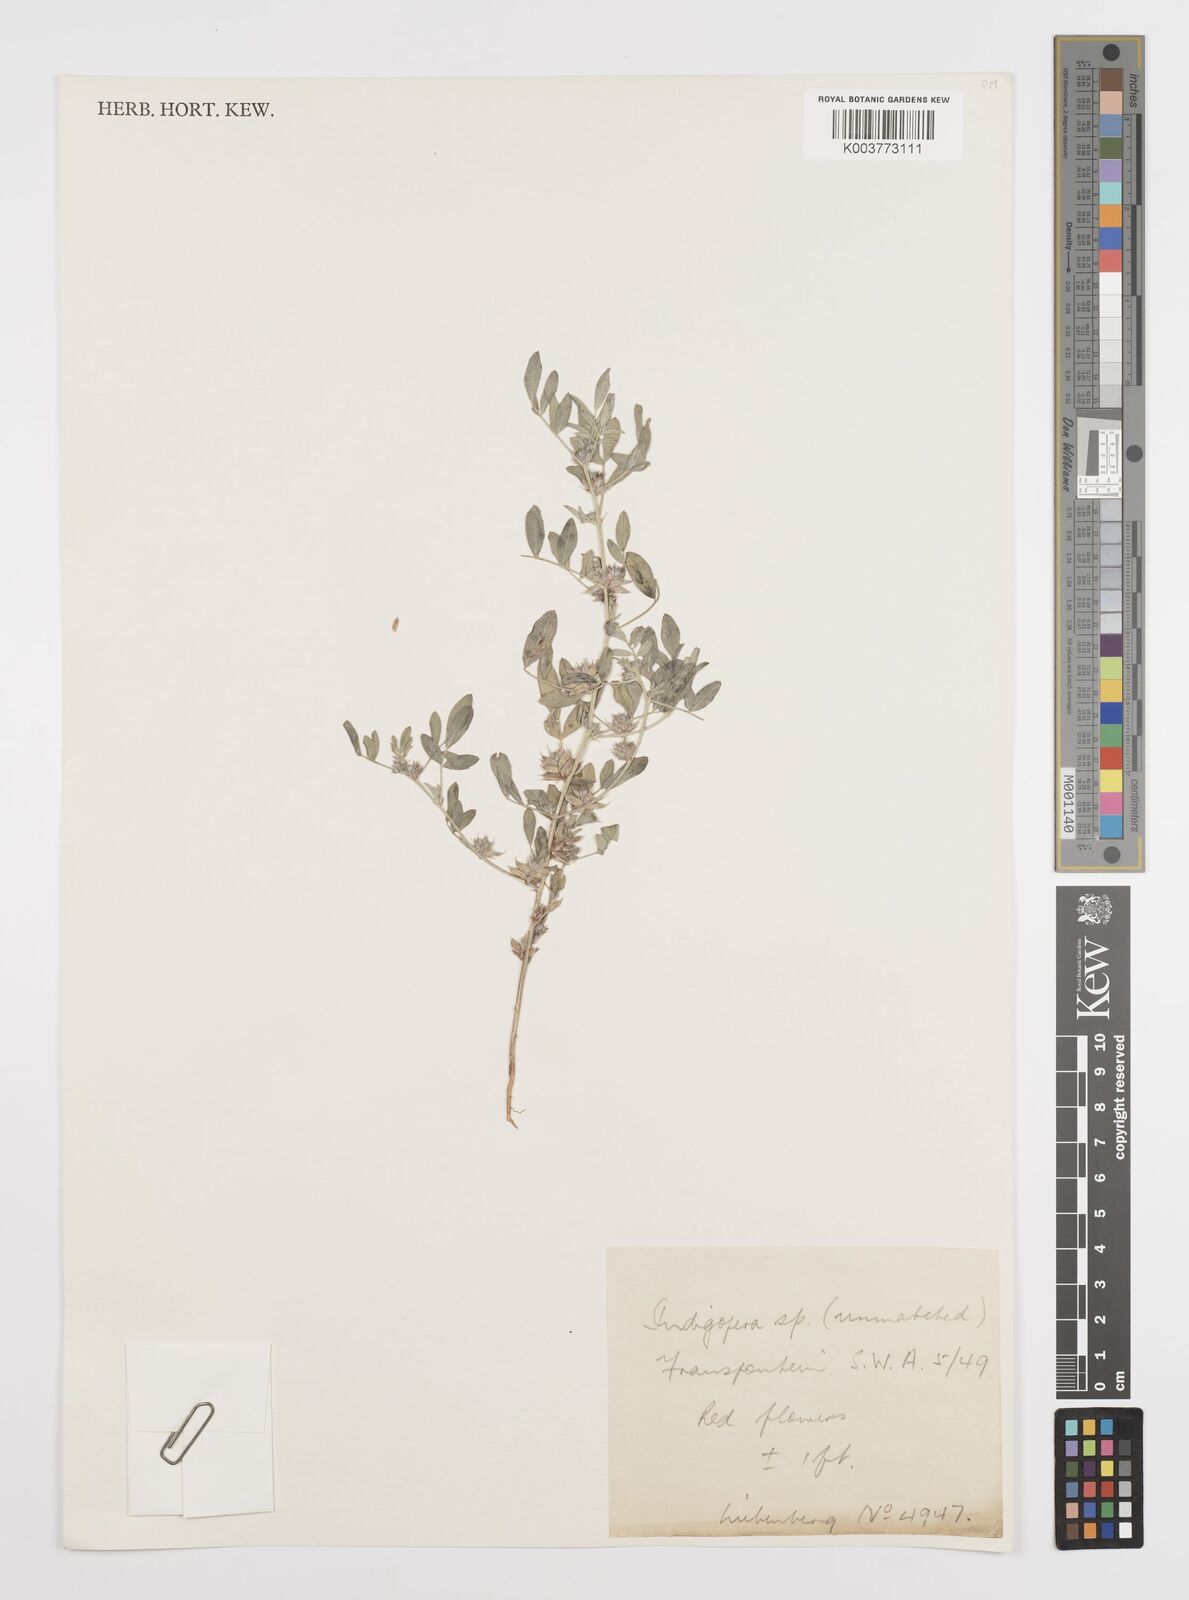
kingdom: Plantae
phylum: Tracheophyta
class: Magnoliopsida
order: Fabales
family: Fabaceae
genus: Indigofera
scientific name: Indigofera trigonelloides
